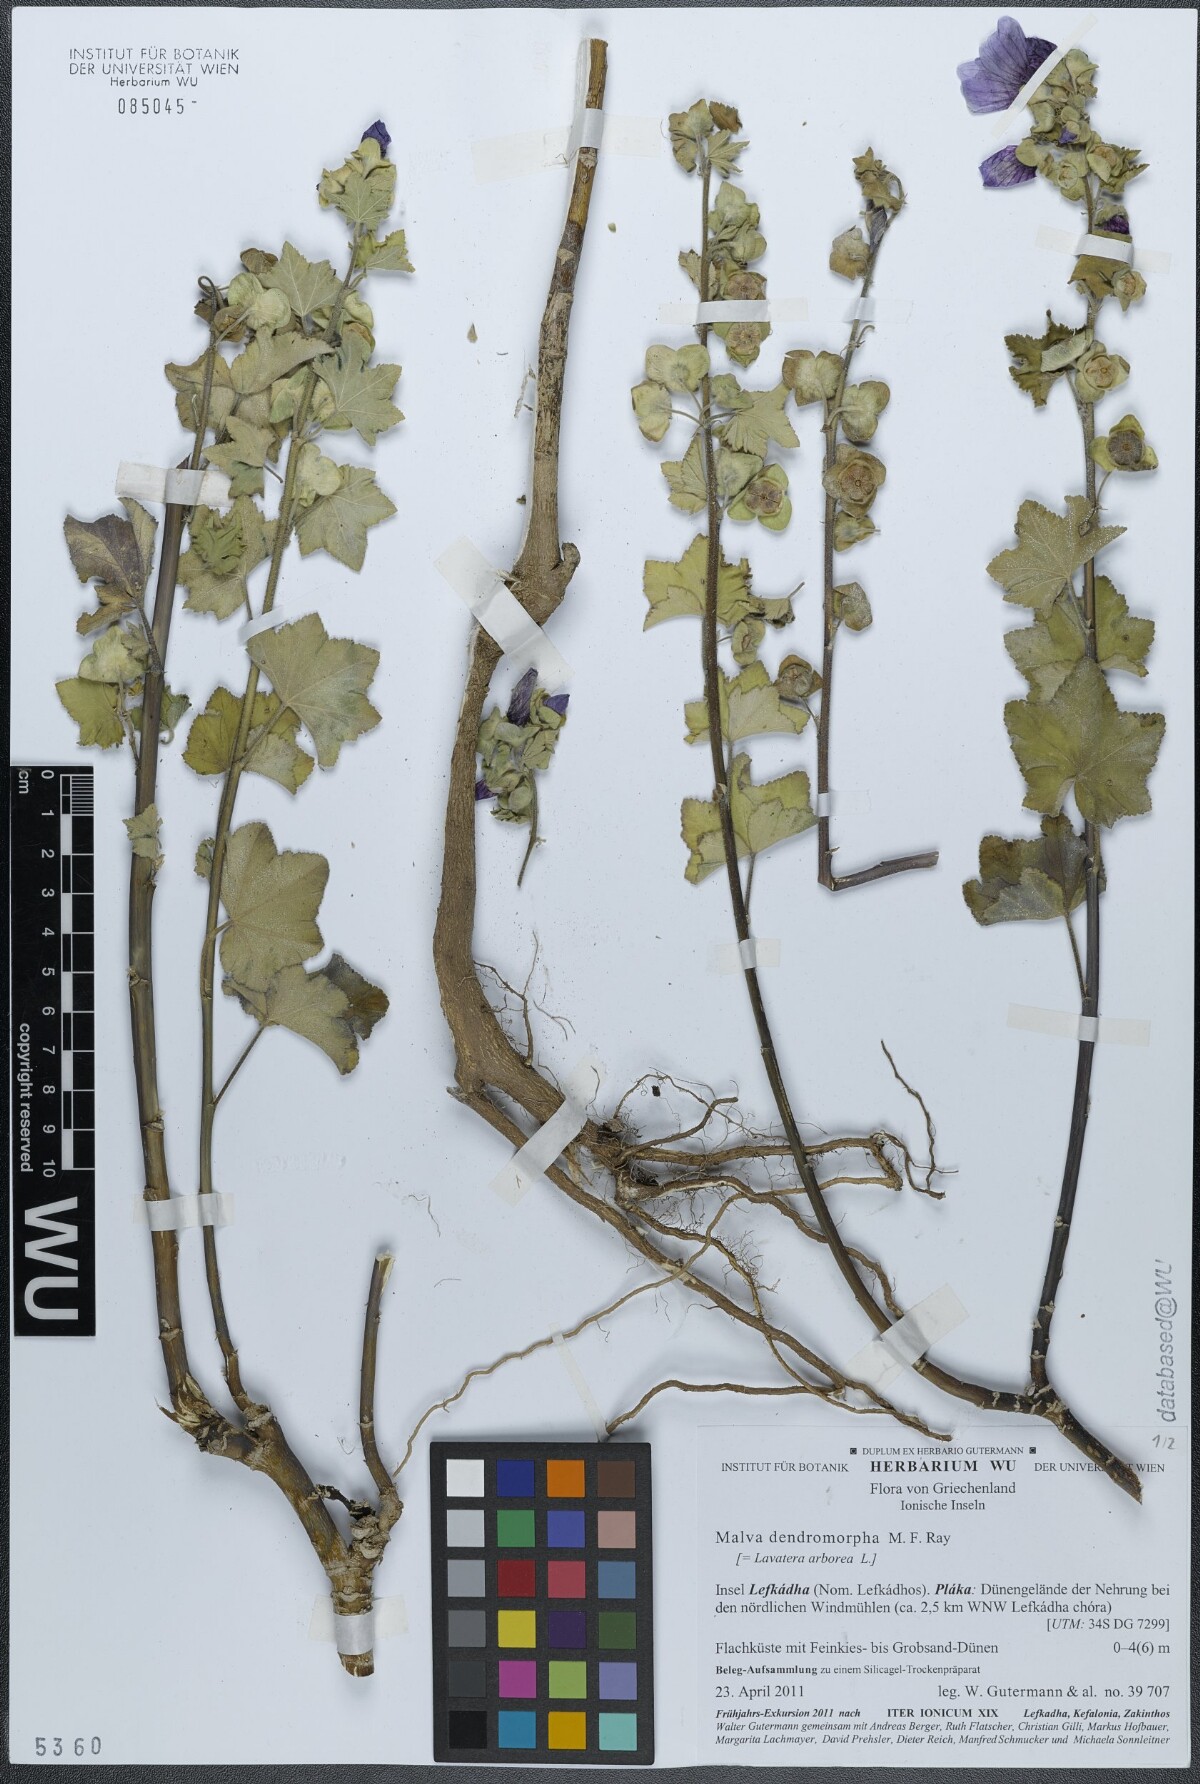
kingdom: Plantae
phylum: Tracheophyta
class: Magnoliopsida
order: Malvales
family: Malvaceae
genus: Malva
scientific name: Malva arborea
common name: Tree mallow
